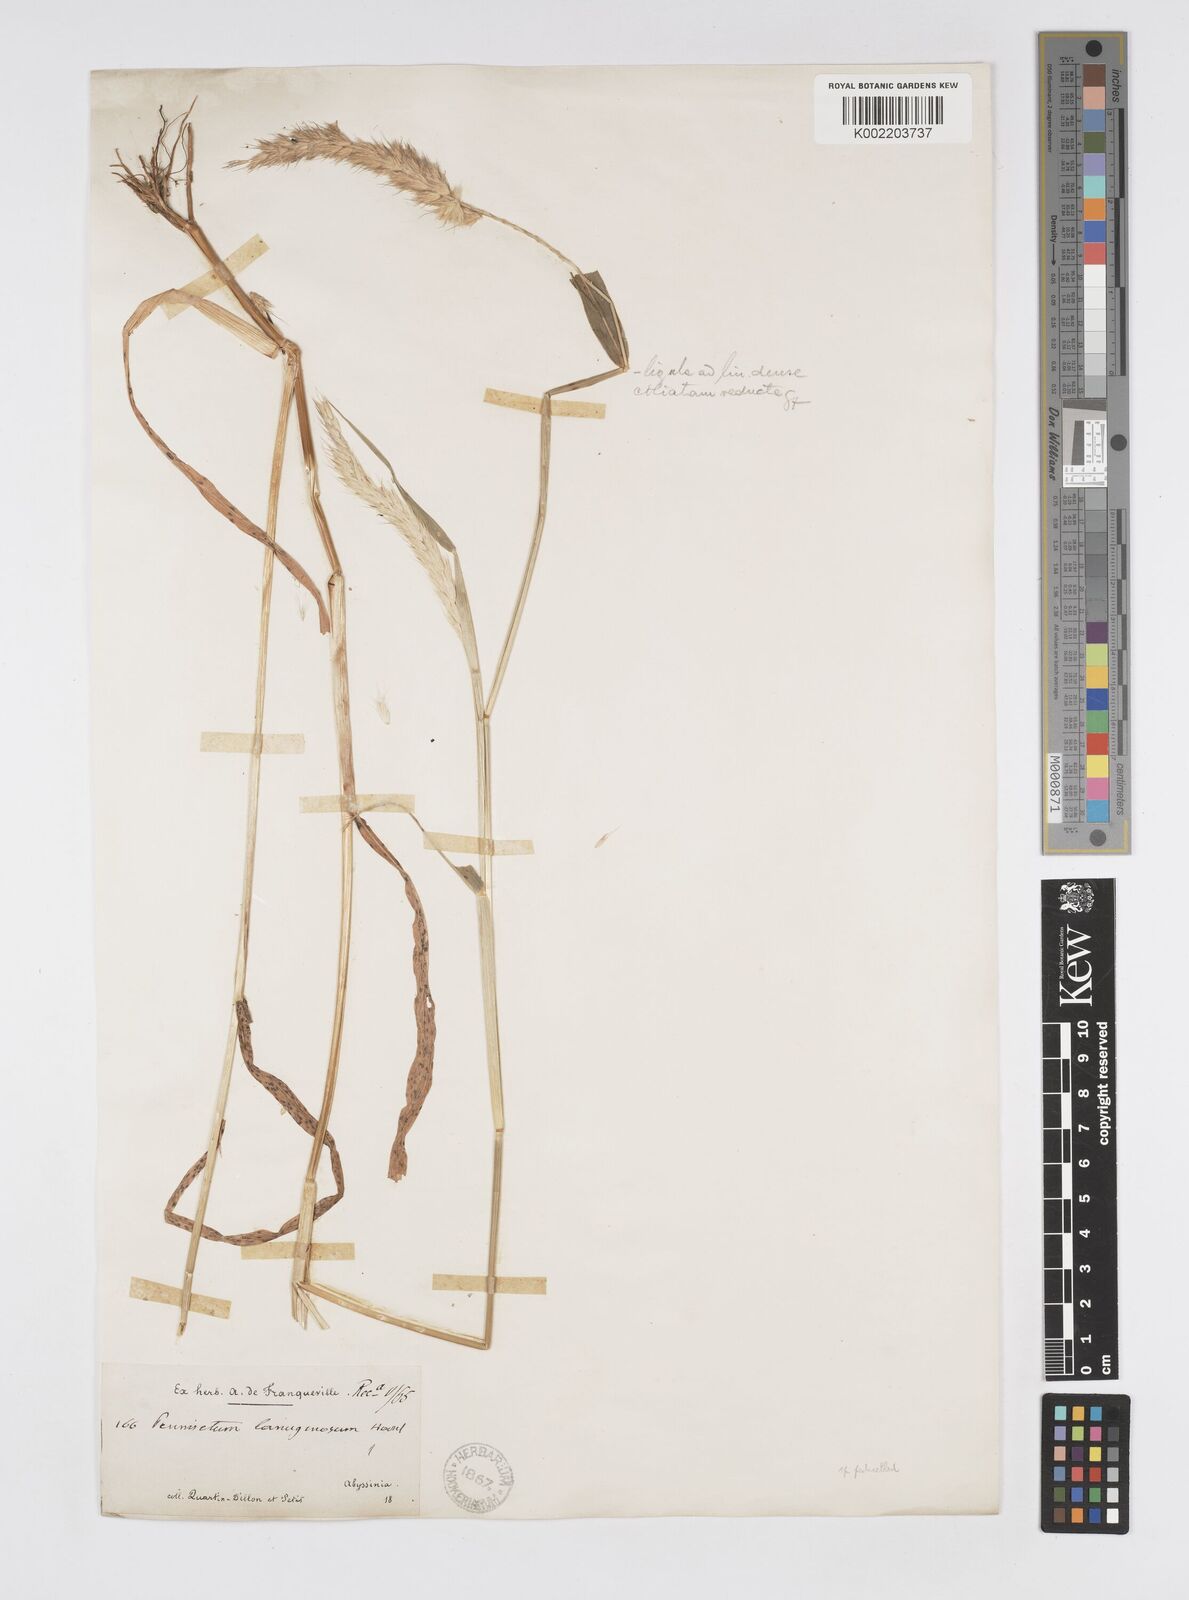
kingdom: Plantae
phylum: Tracheophyta
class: Liliopsida
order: Poales
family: Poaceae
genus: Cenchrus
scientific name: Cenchrus pedicellatus
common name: Hairy fountain grass
